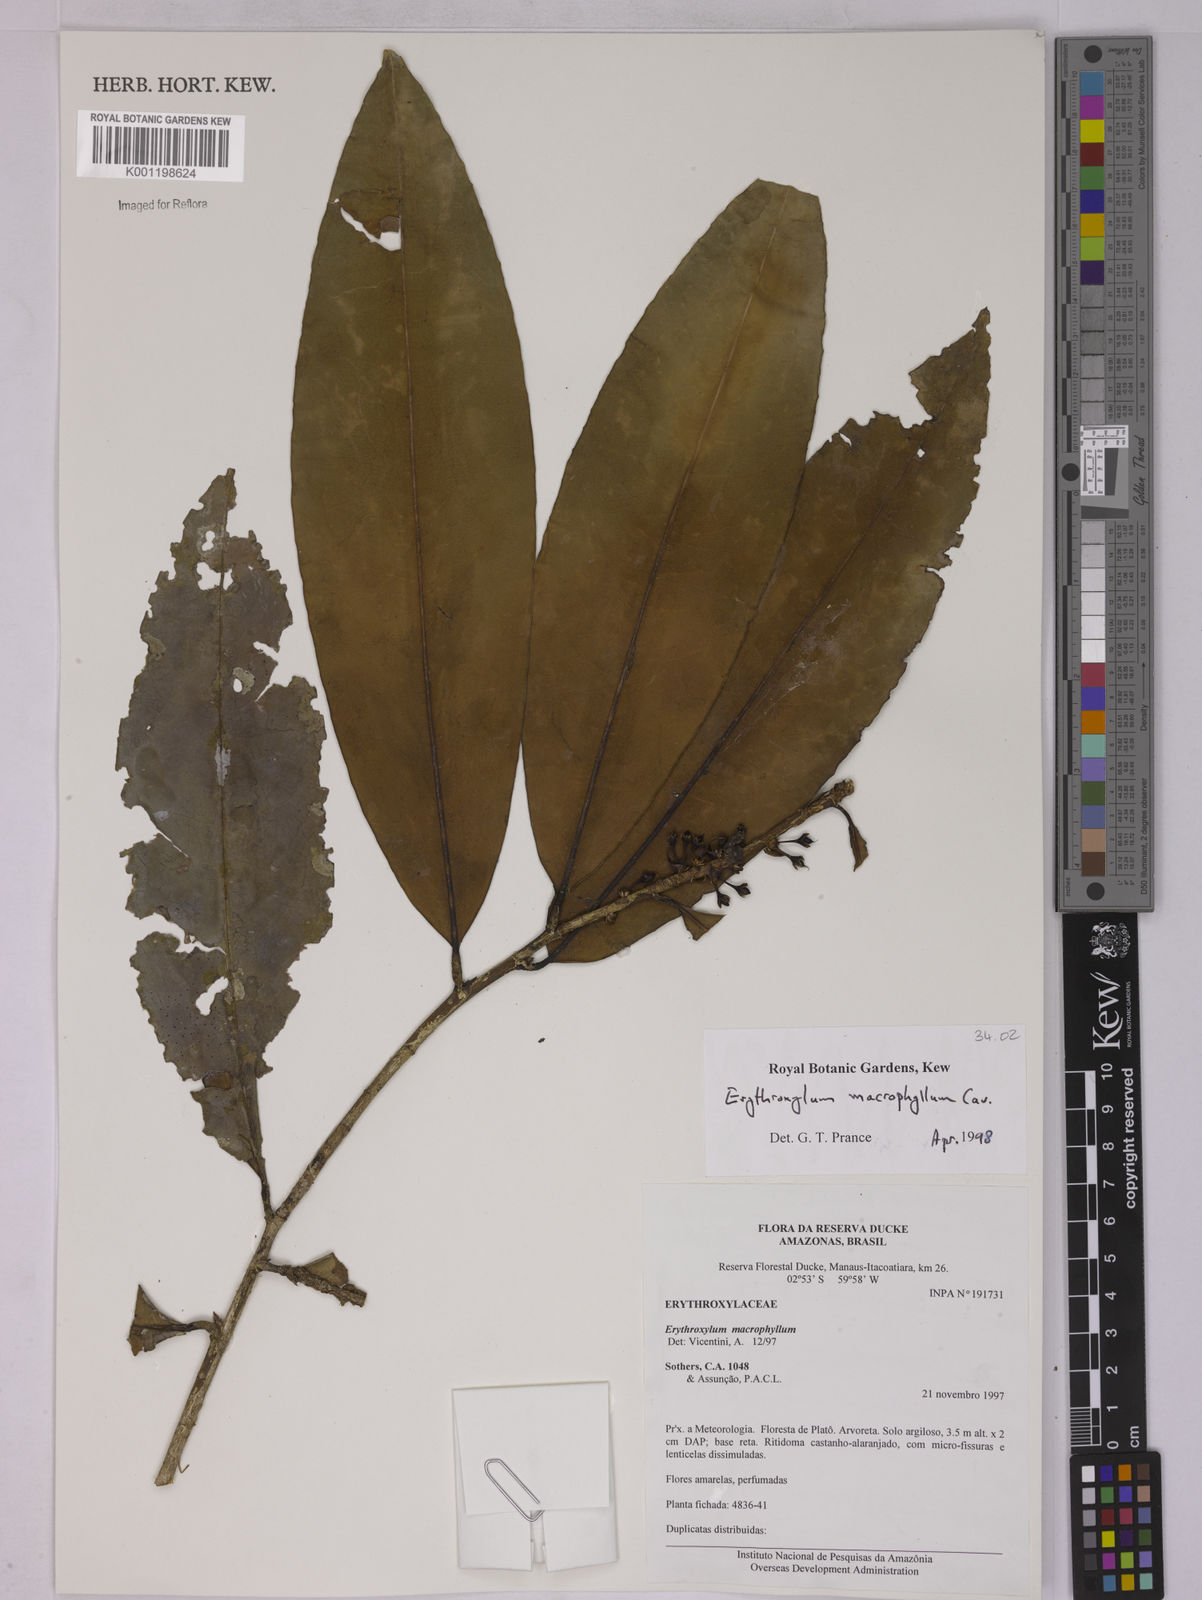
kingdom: Plantae
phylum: Tracheophyta
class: Magnoliopsida
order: Malpighiales
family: Erythroxylaceae
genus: Erythroxylum
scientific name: Erythroxylum macrophyllum
